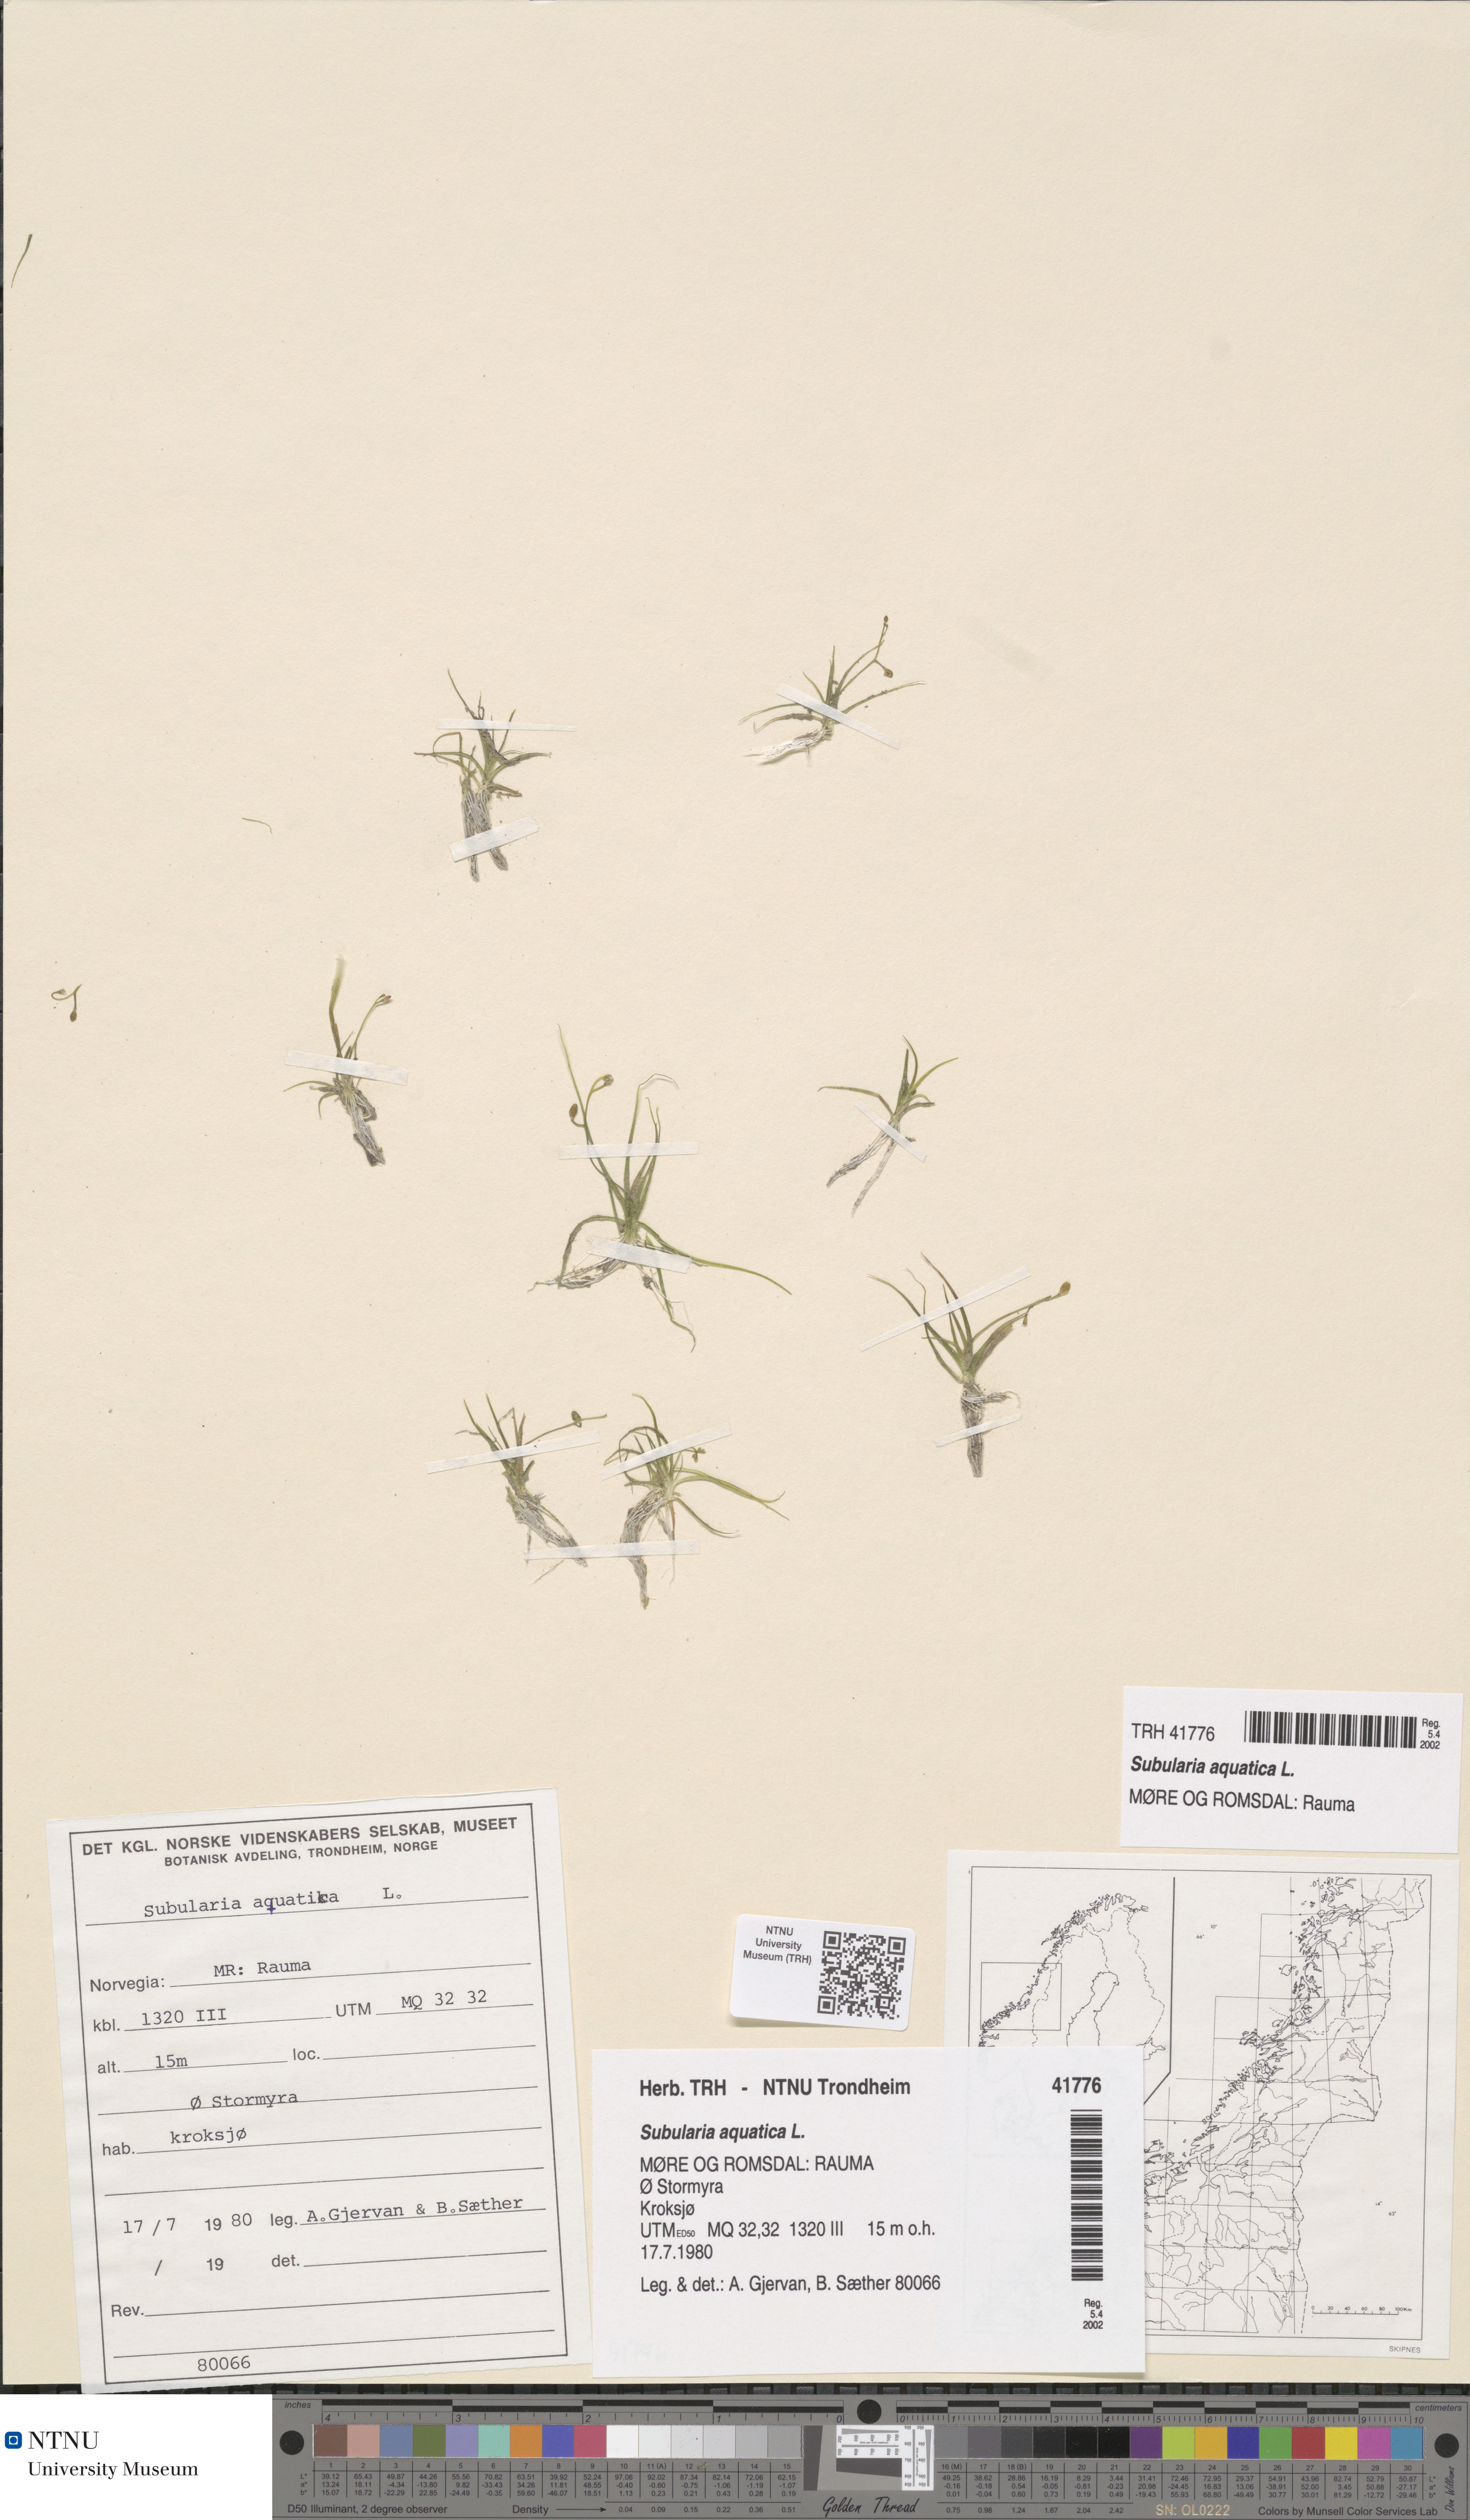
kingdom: Plantae
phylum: Tracheophyta
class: Magnoliopsida
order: Brassicales
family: Brassicaceae
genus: Subularia
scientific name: Subularia aquatica
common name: Awlwort
